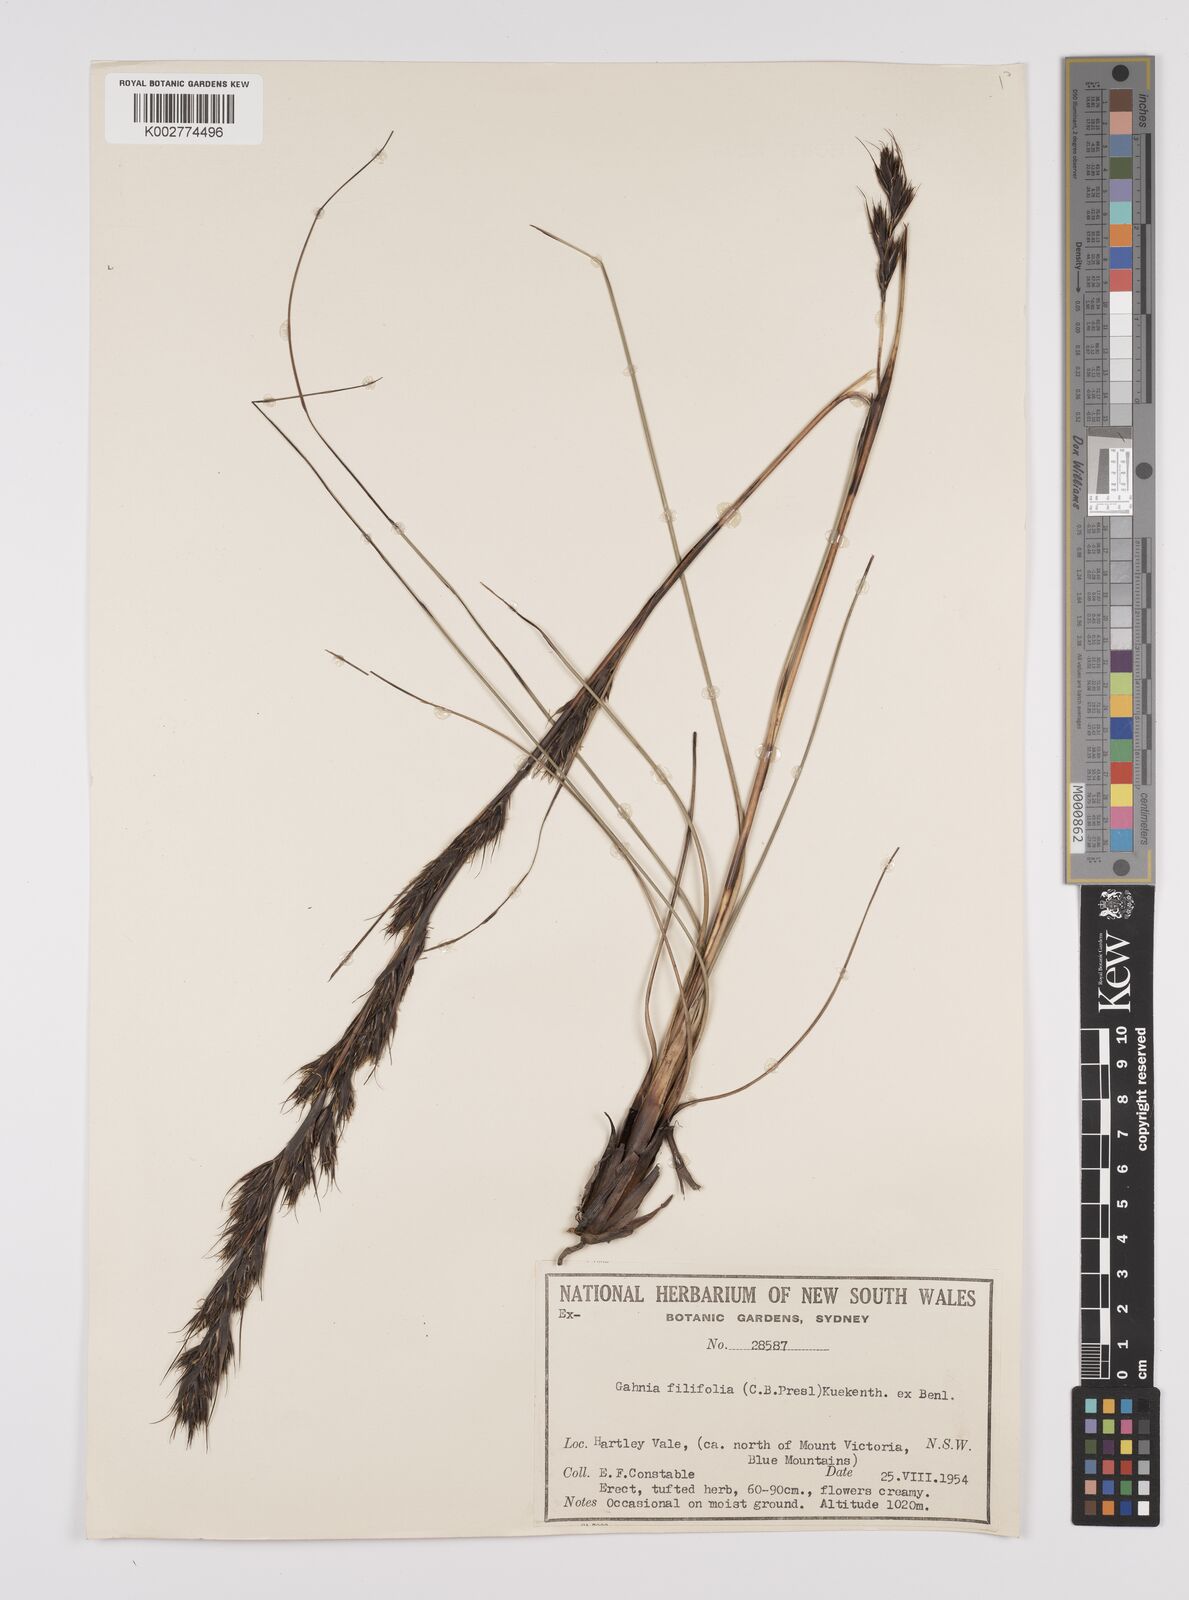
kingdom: Plantae
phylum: Tracheophyta
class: Liliopsida
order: Poales
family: Cyperaceae
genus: Gahnia
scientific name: Gahnia filifolia
